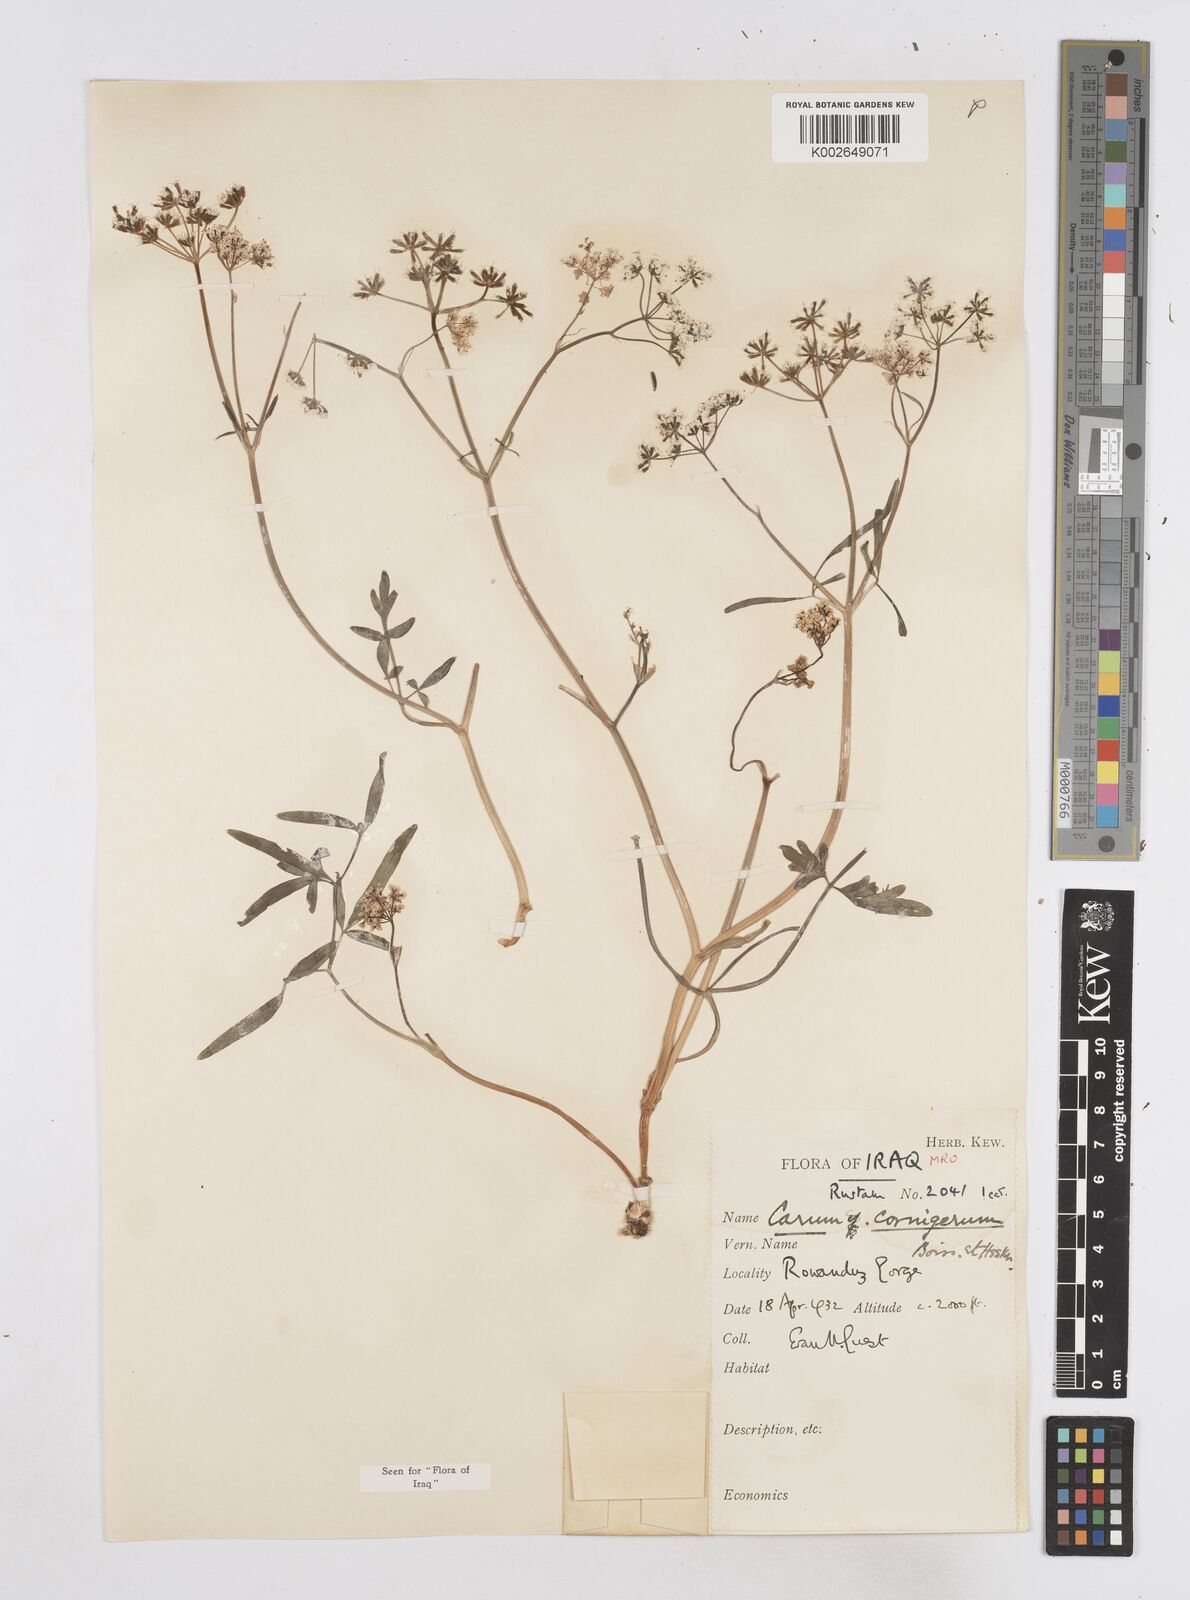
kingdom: Plantae
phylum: Tracheophyta
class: Magnoliopsida
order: Apiales
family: Apiaceae
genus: Bunium
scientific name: Bunium cornigerum
